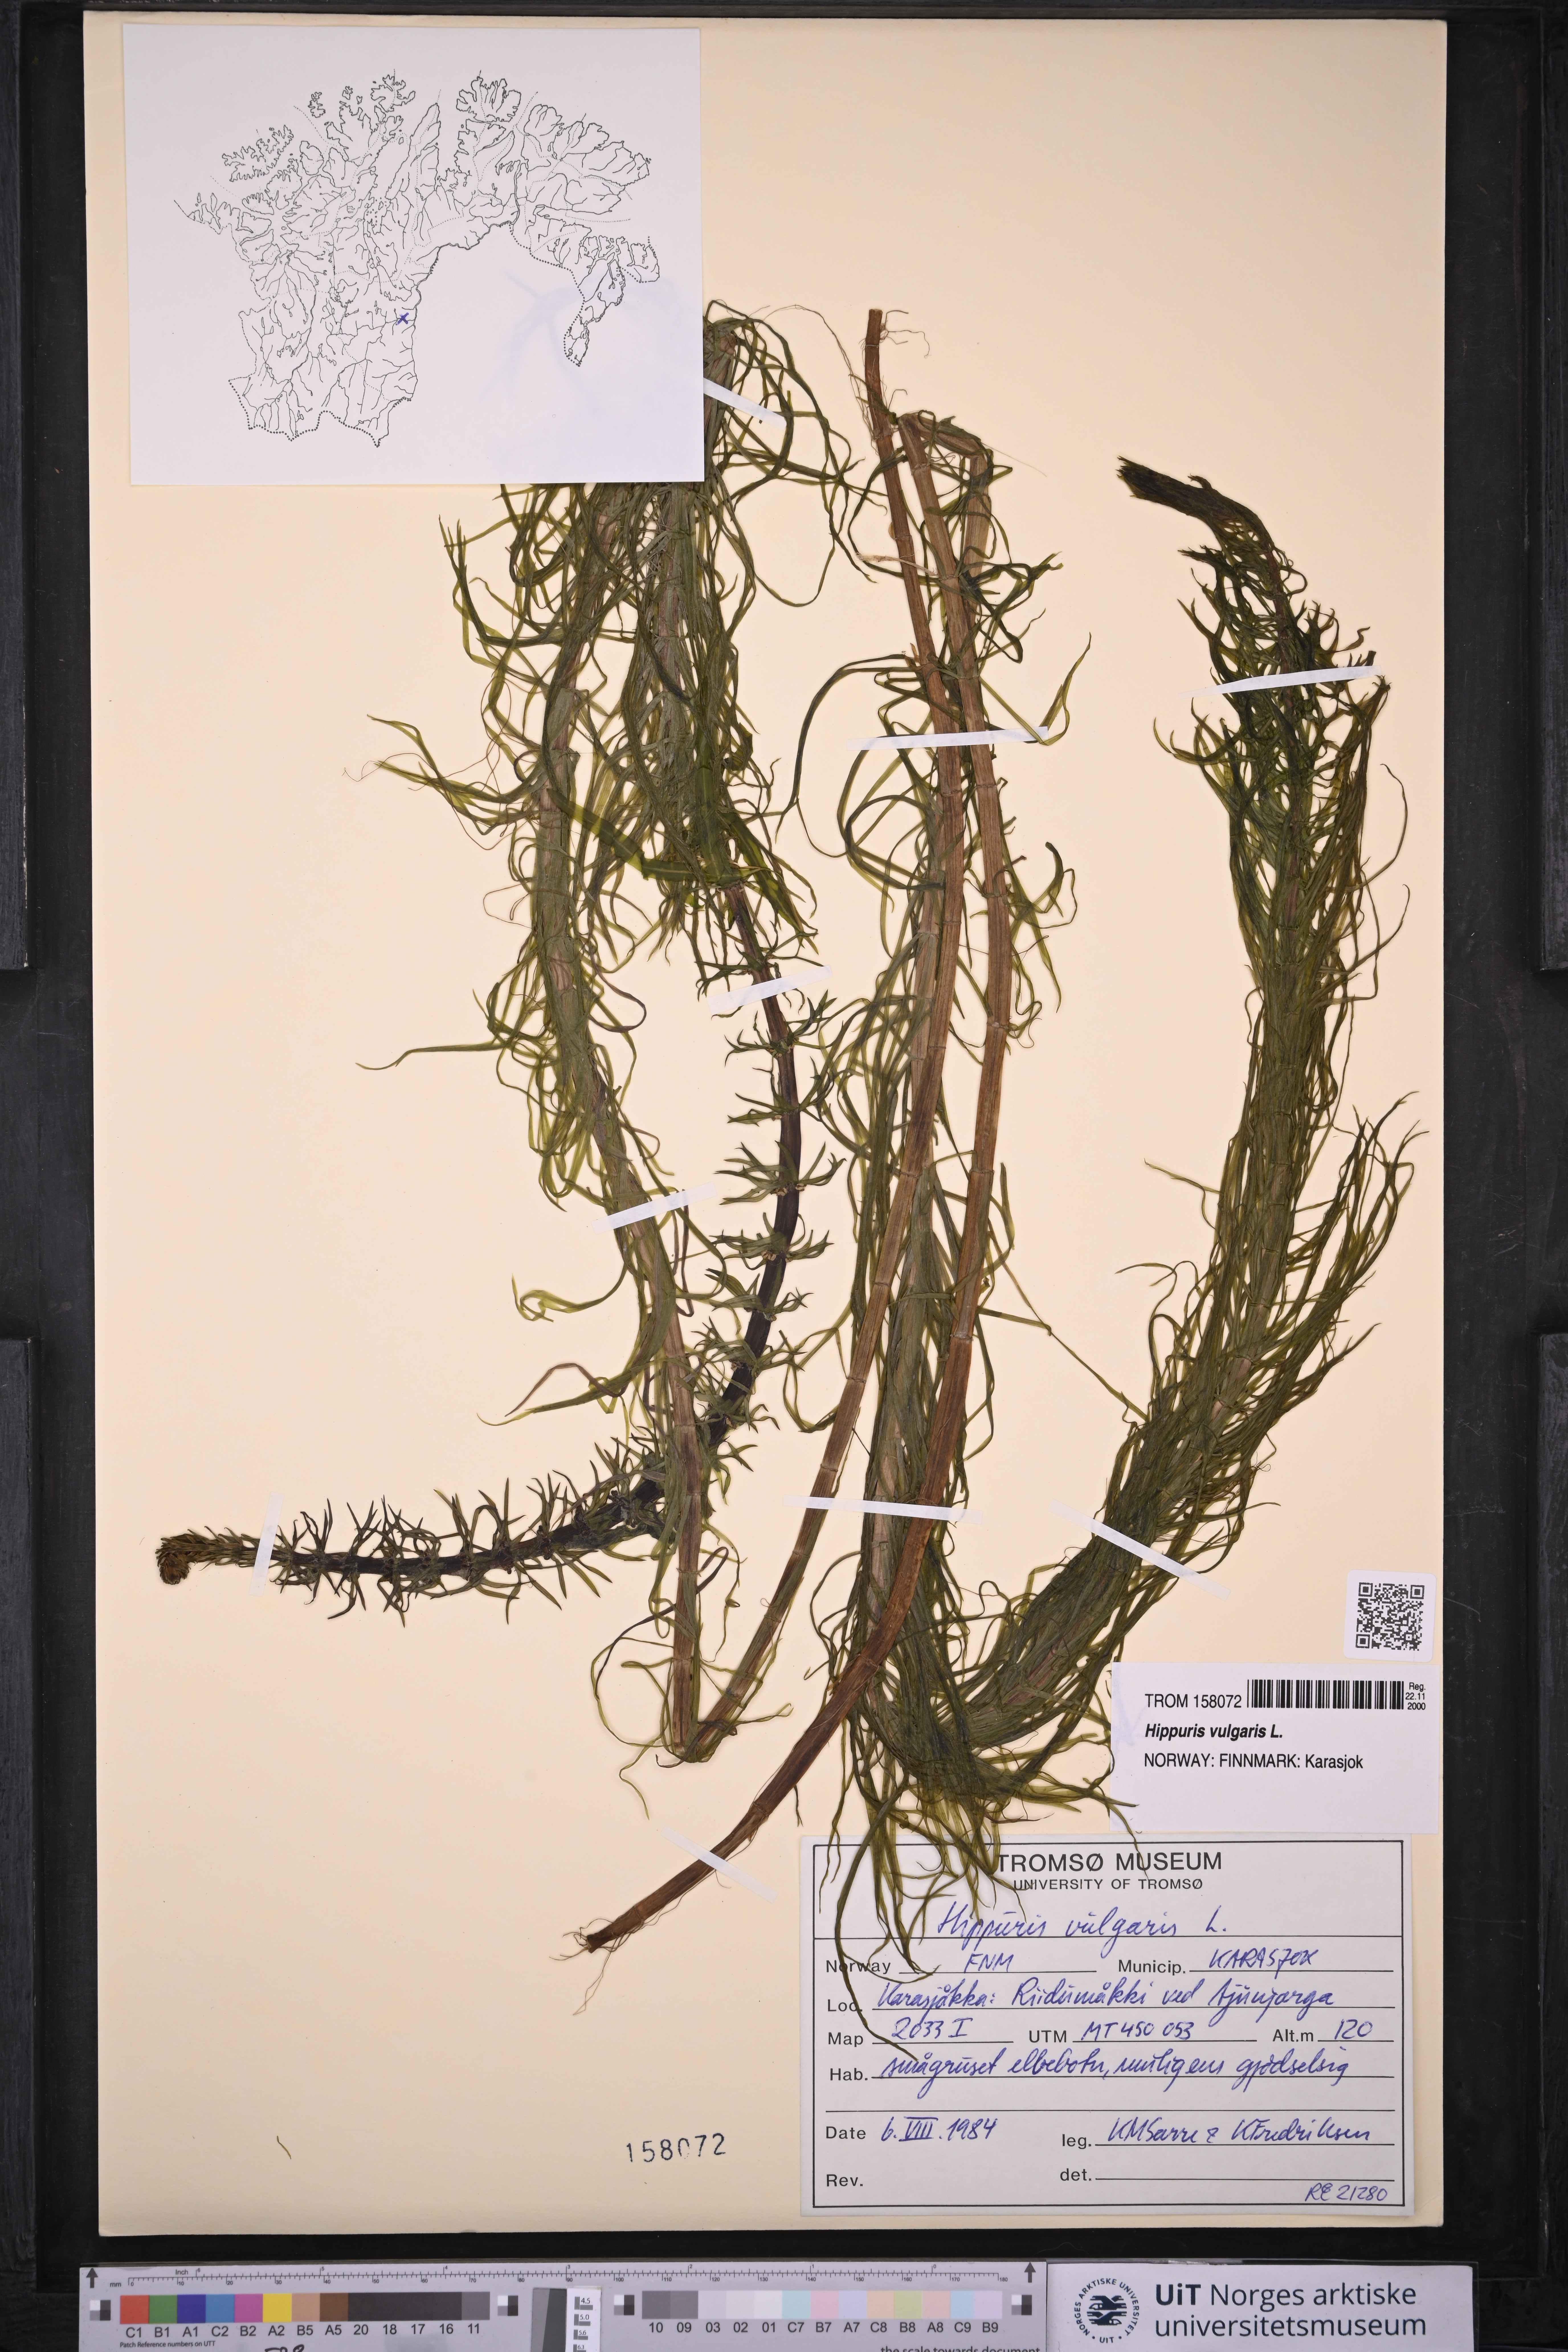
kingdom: Plantae
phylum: Tracheophyta
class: Magnoliopsida
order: Lamiales
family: Plantaginaceae
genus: Hippuris
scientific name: Hippuris vulgaris
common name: Mare's-tail
